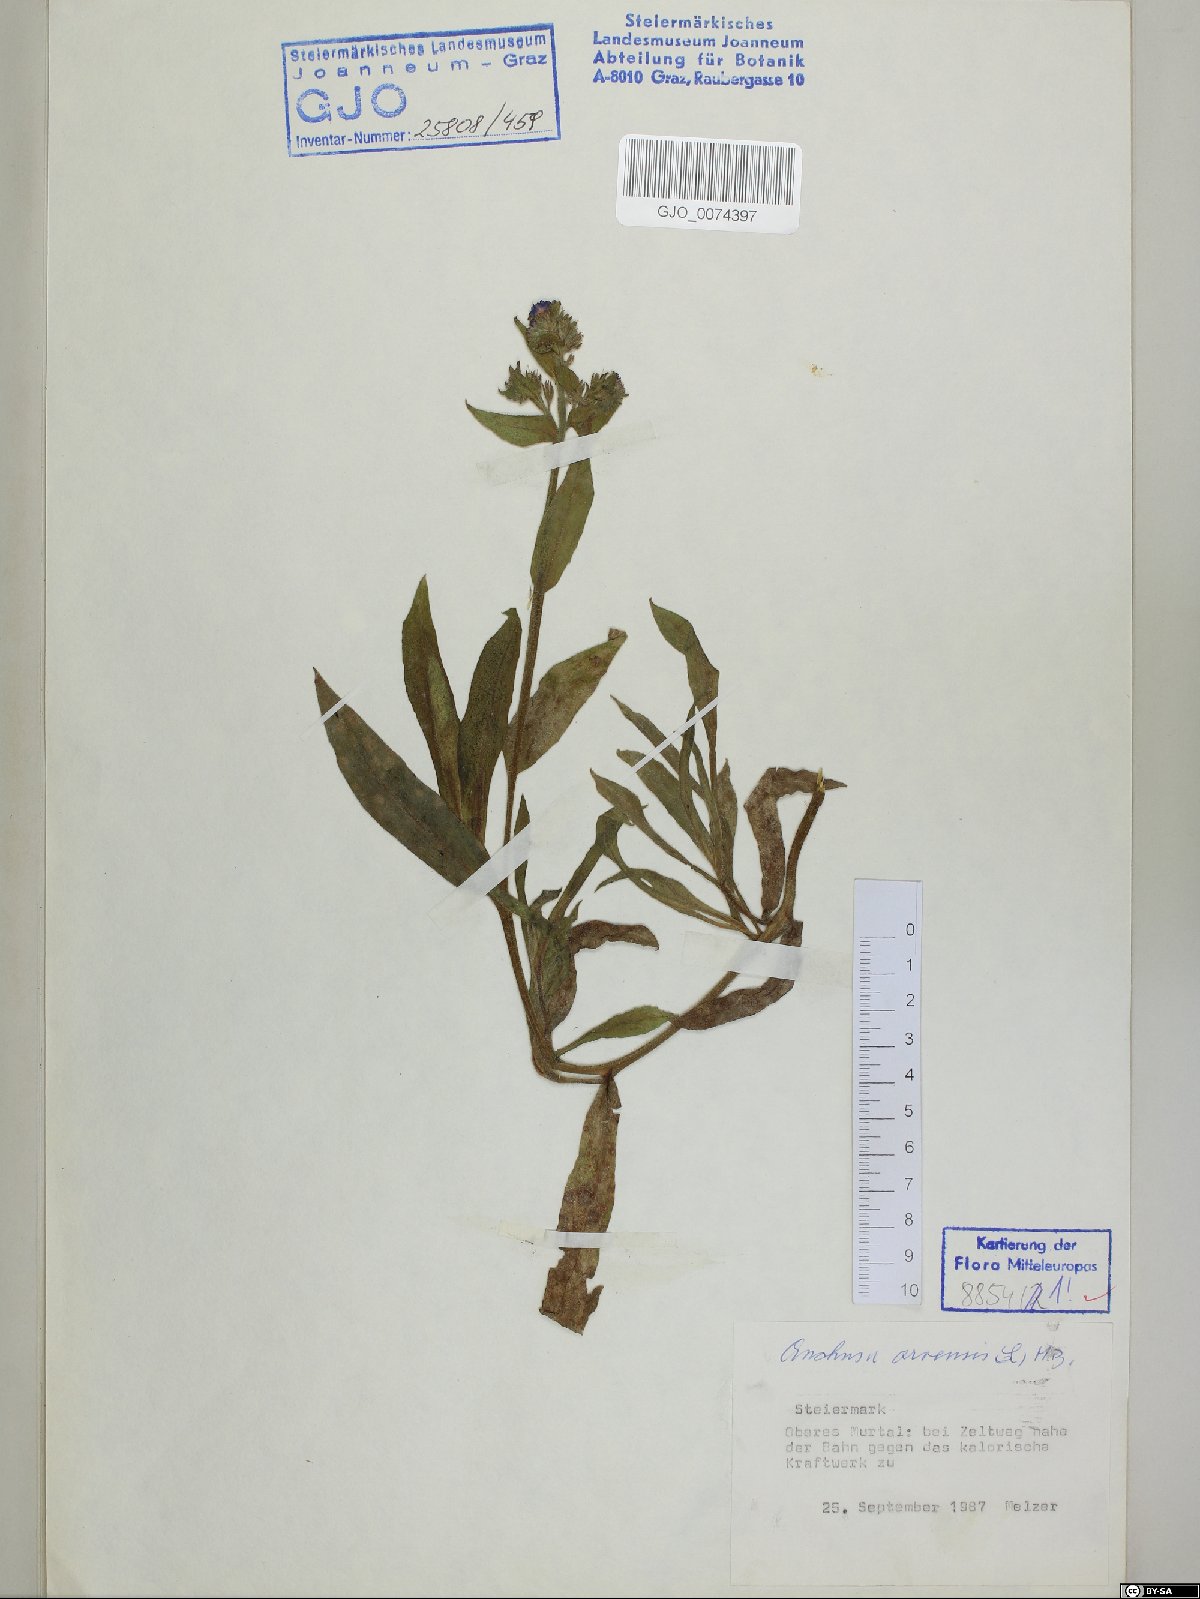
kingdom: Plantae
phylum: Tracheophyta
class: Magnoliopsida
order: Boraginales
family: Boraginaceae
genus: Lycopsis
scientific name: Lycopsis arvensis
